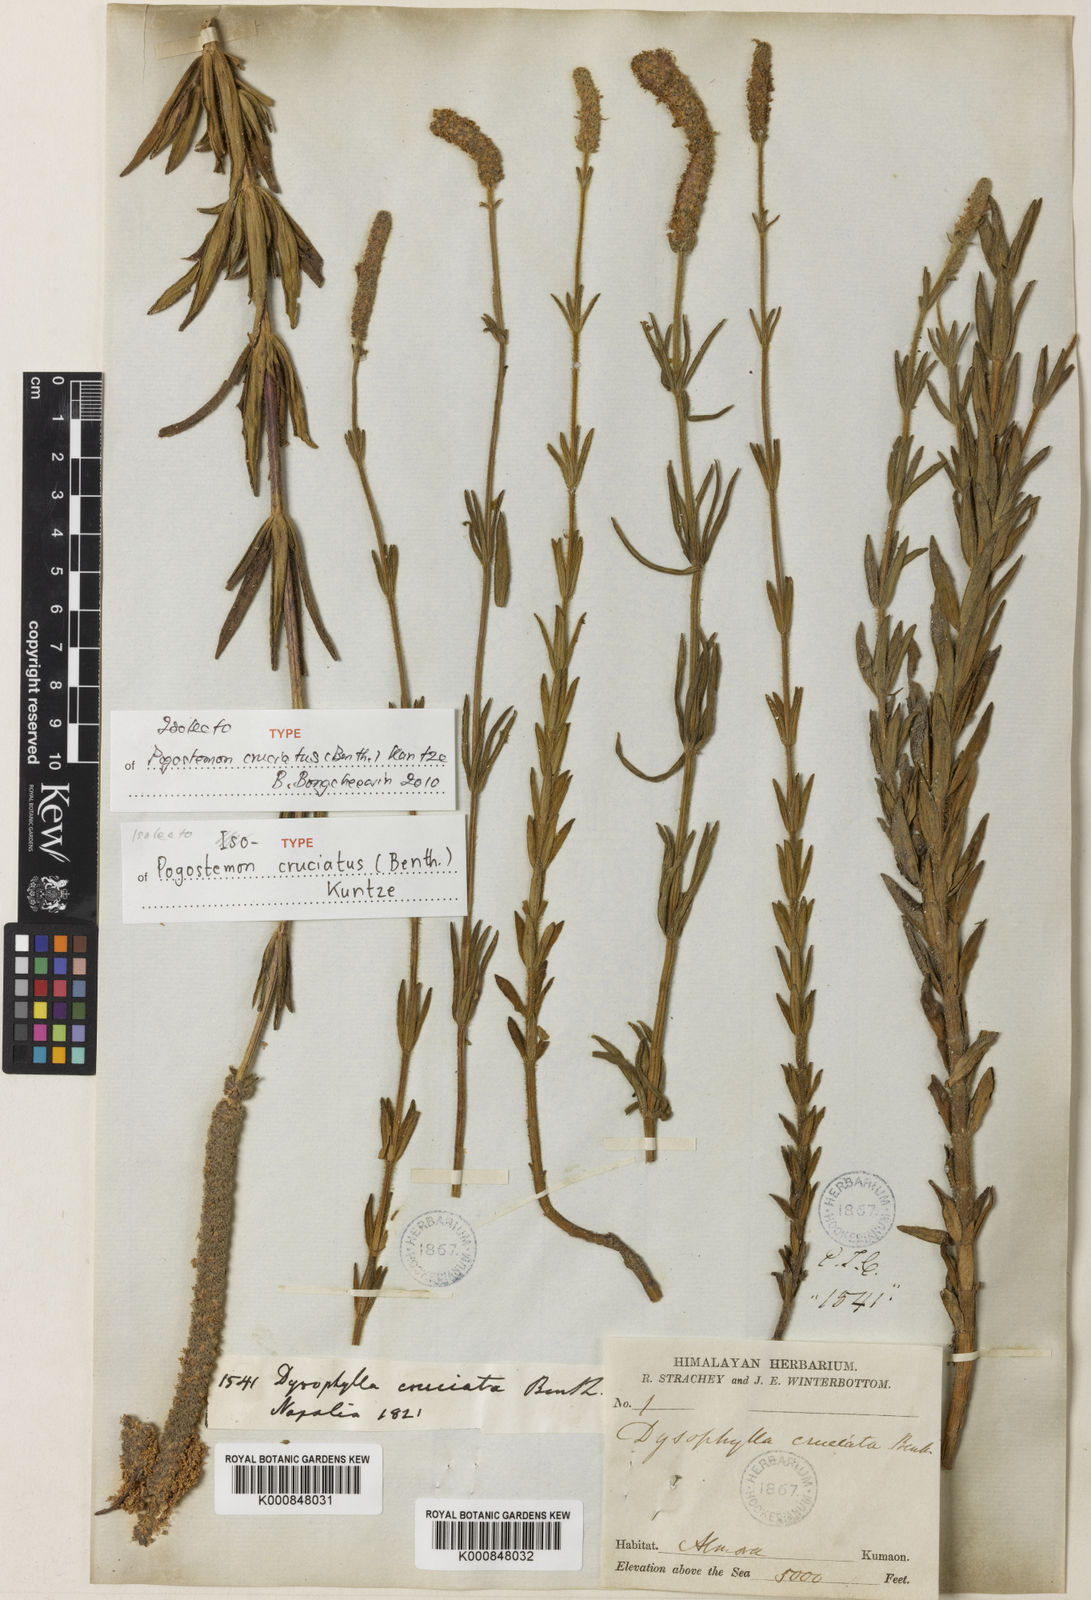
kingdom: Plantae
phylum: Tracheophyta
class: Magnoliopsida
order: Lamiales
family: Lamiaceae
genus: Pogostemon
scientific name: Pogostemon cruciatus
